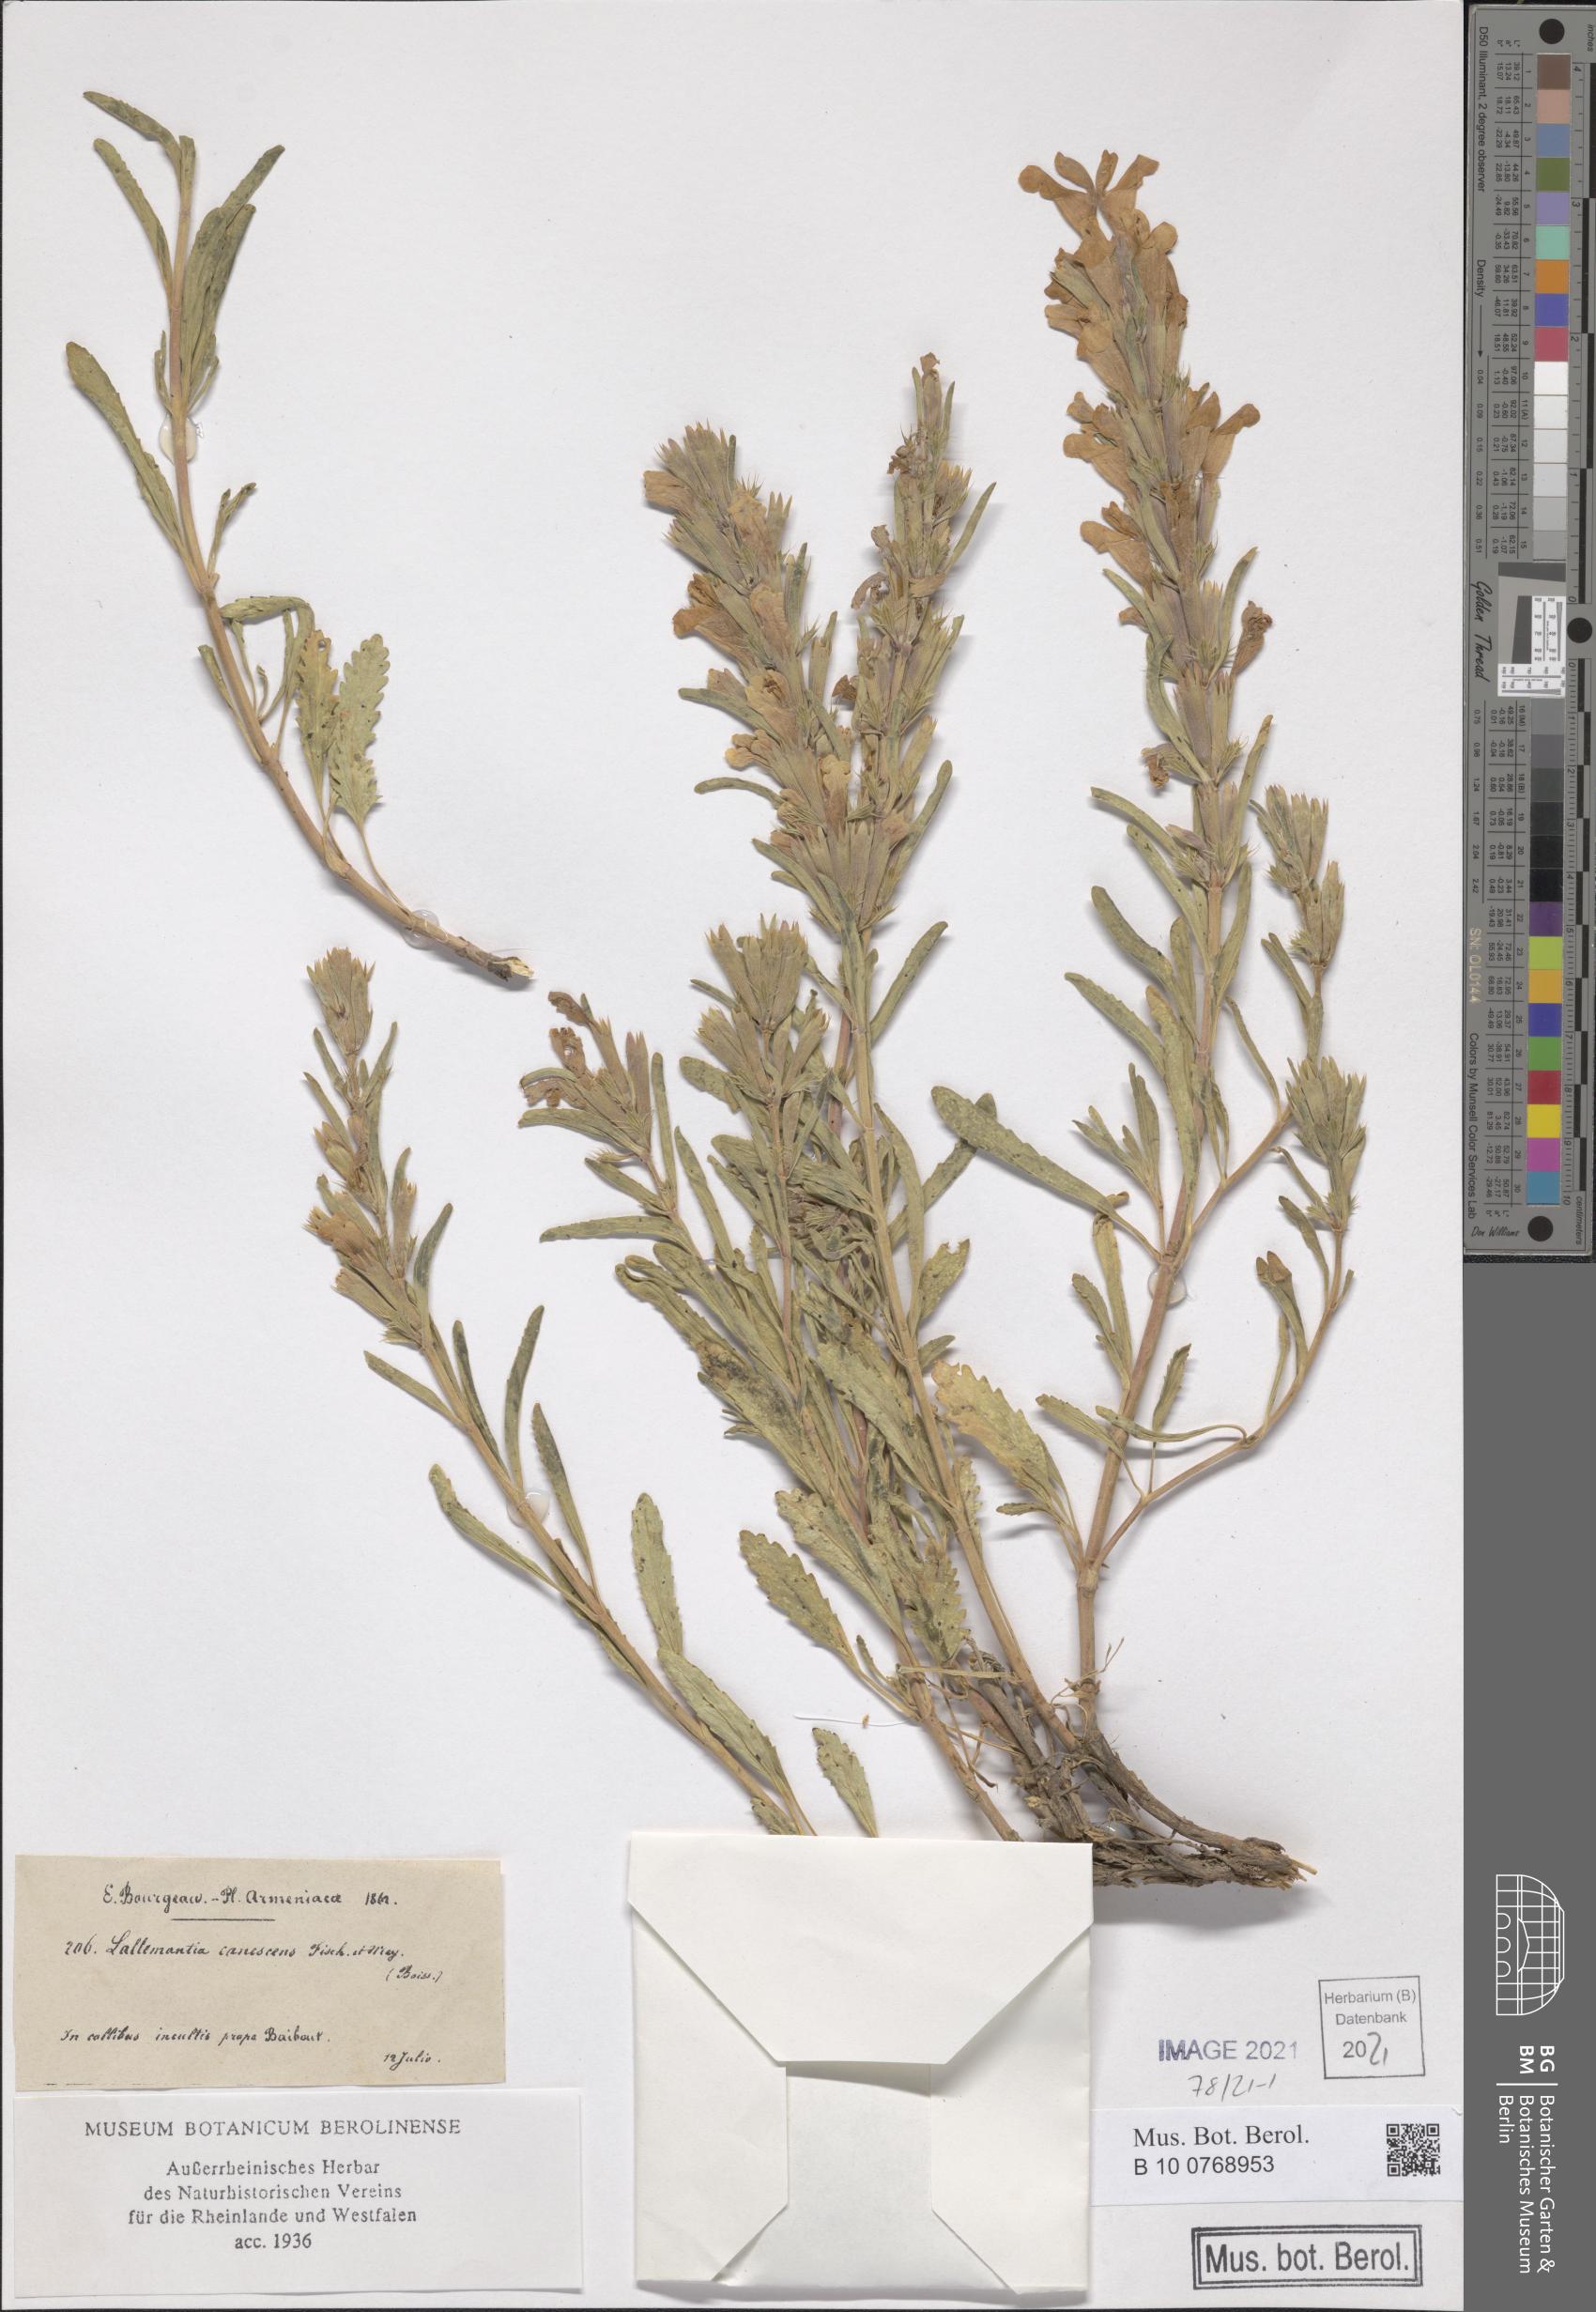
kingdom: Plantae
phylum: Tracheophyta
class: Magnoliopsida
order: Lamiales
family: Lamiaceae
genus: Lallemantia
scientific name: Lallemantia canescens
